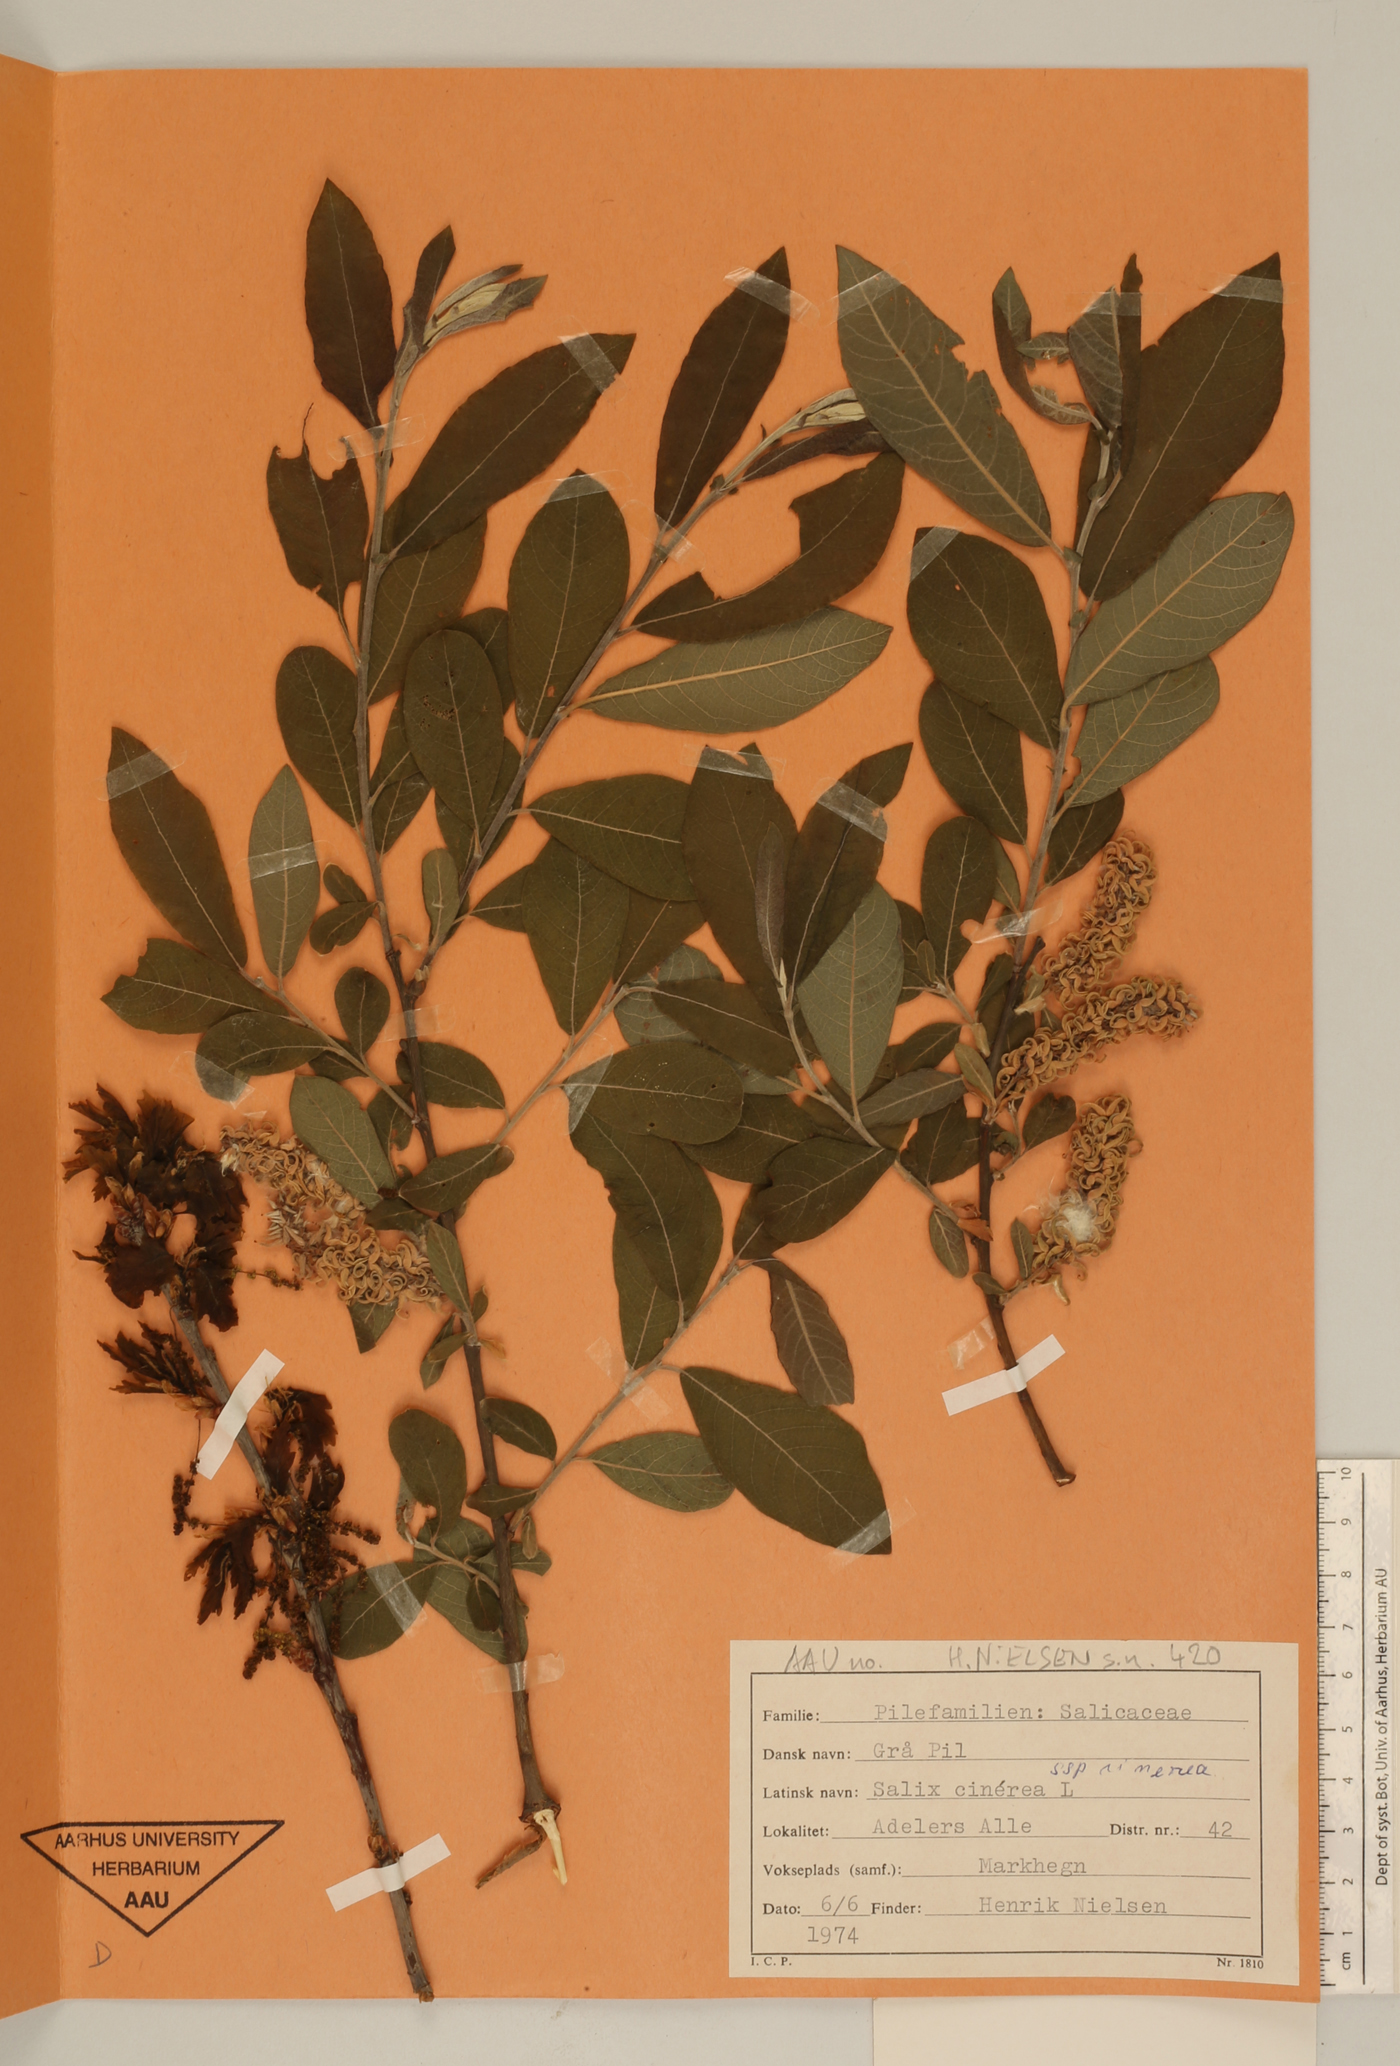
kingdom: Plantae
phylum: Tracheophyta
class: Magnoliopsida
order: Malpighiales
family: Salicaceae
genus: Salix
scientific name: Salix cinerea
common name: Common sallow
